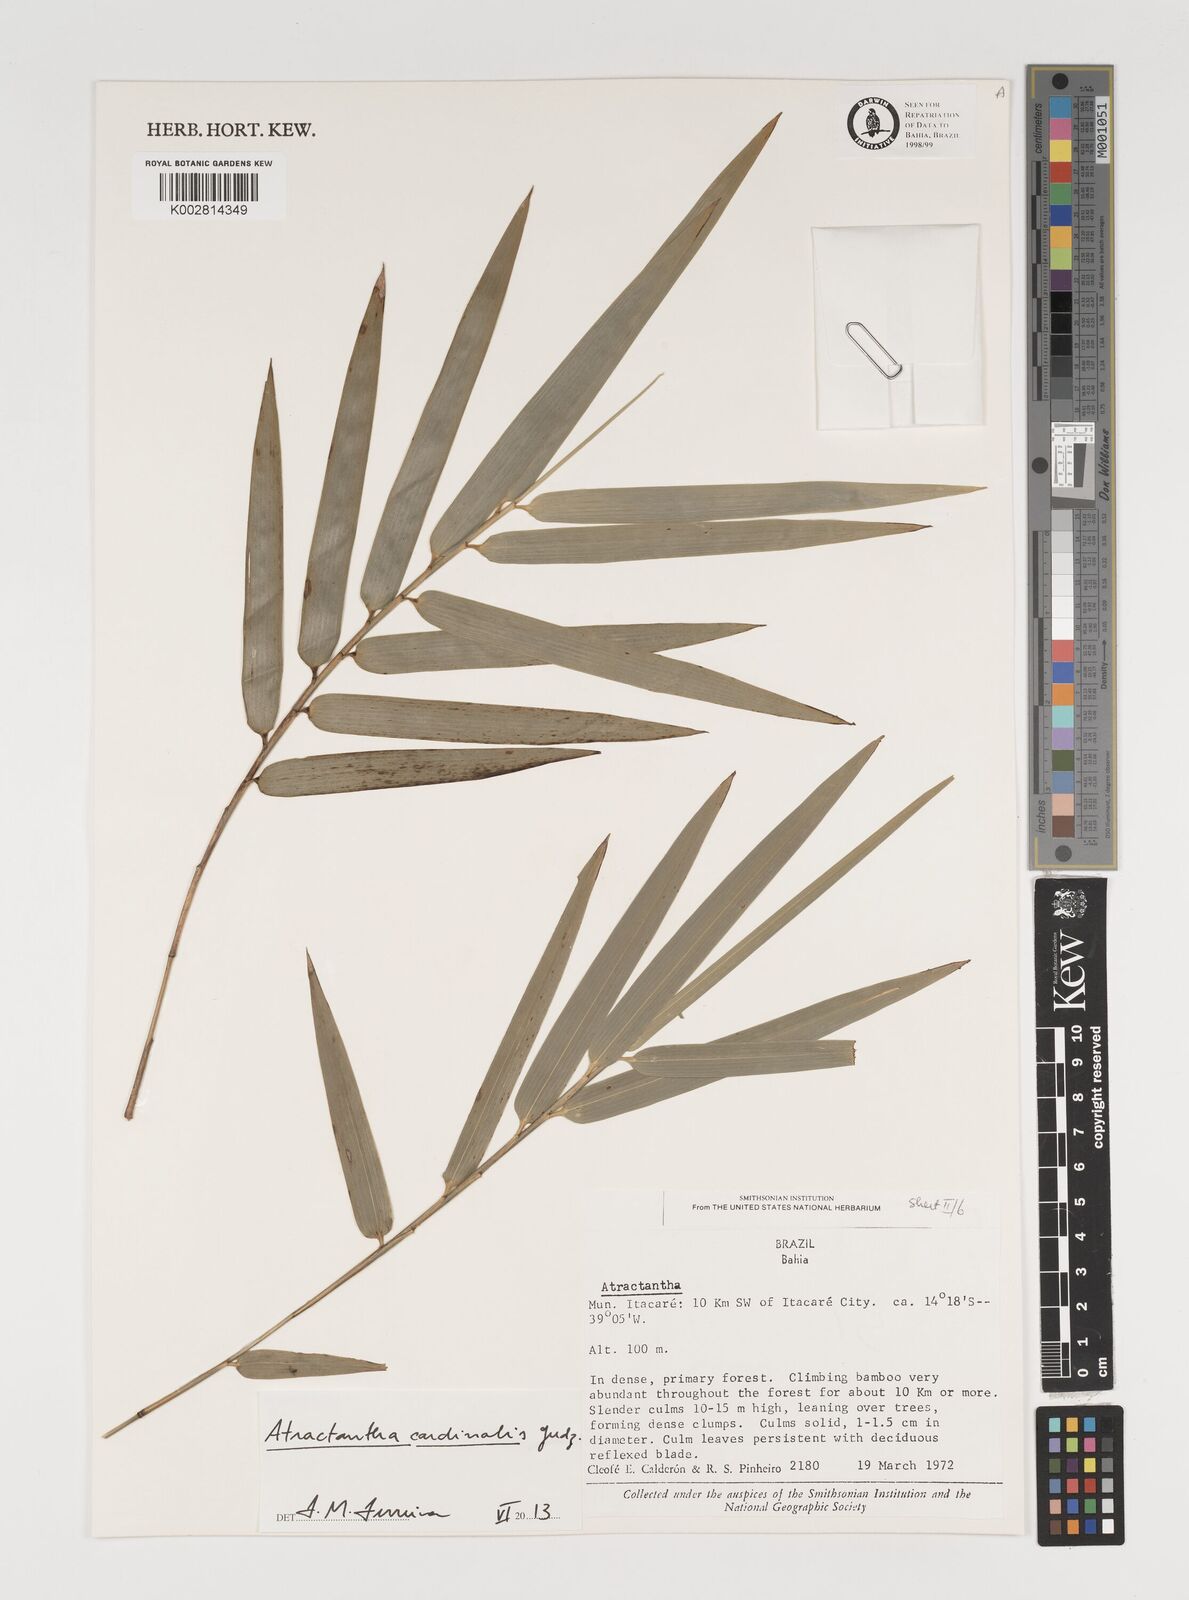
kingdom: Plantae
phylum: Tracheophyta
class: Liliopsida
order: Poales
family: Poaceae
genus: Atractantha
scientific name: Atractantha aureolanata
